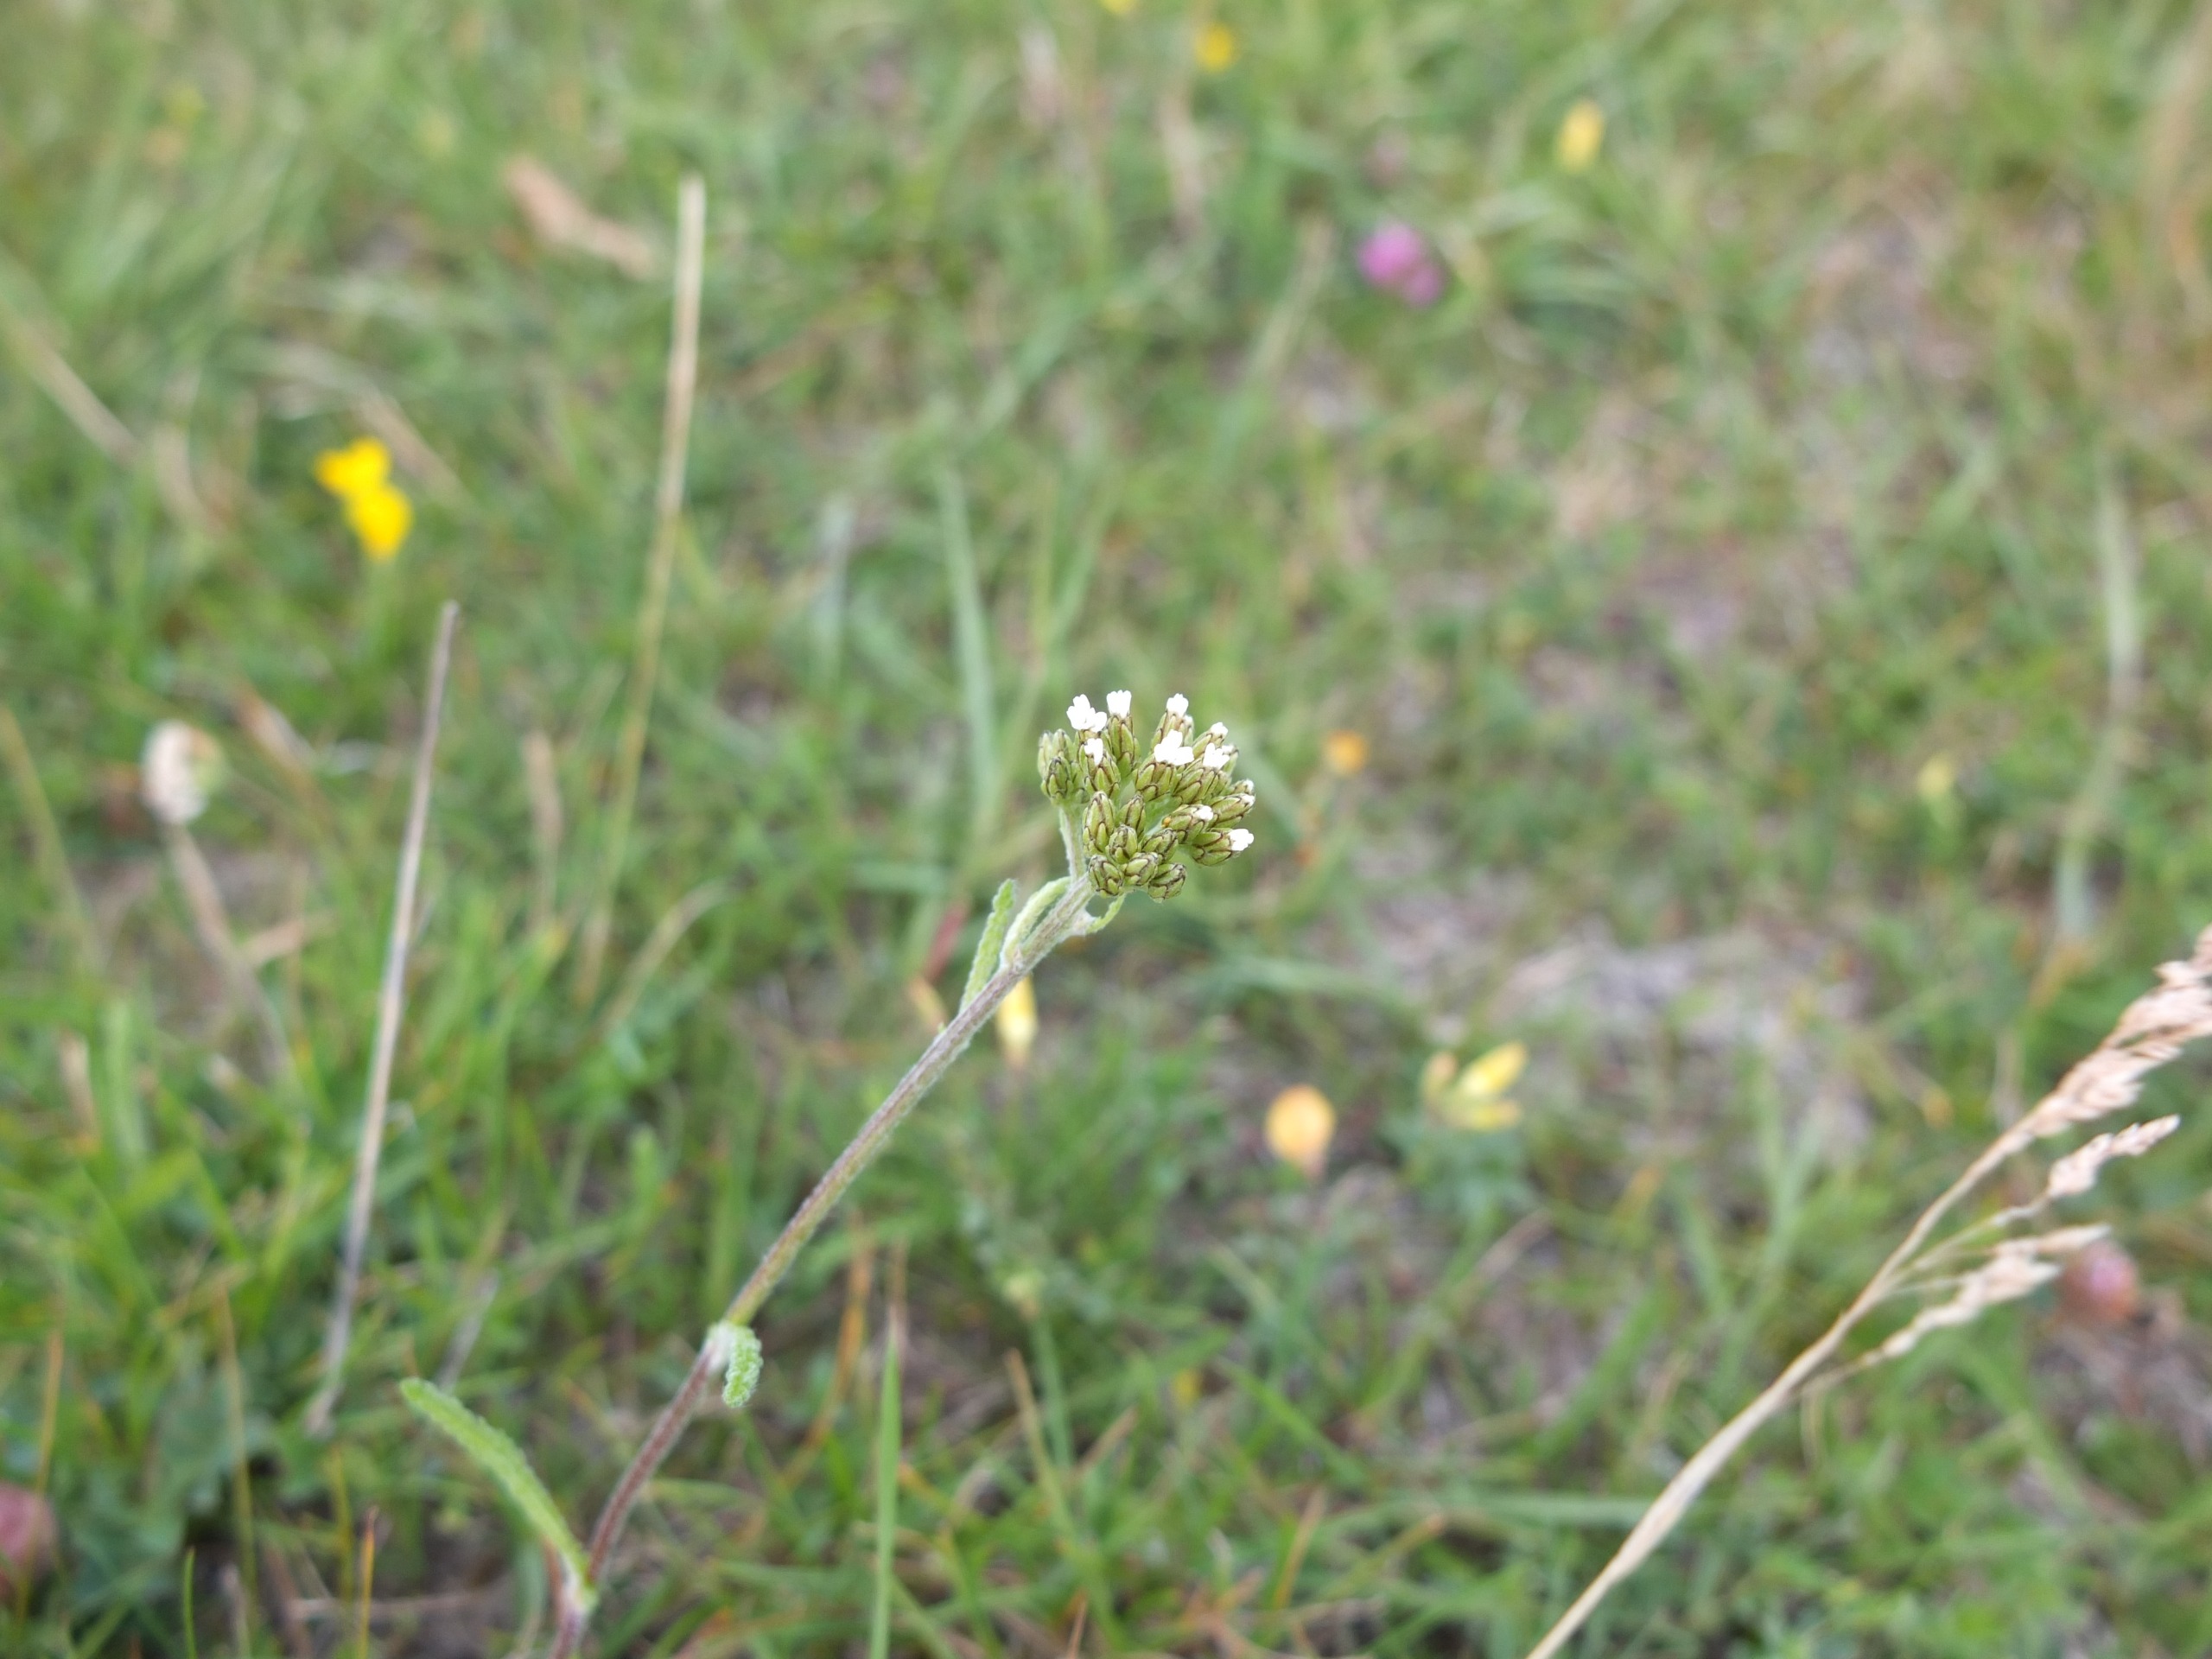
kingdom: Plantae
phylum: Tracheophyta
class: Magnoliopsida
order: Asterales
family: Asteraceae
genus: Achillea
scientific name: Achillea millefolium
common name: Almindelig røllike
